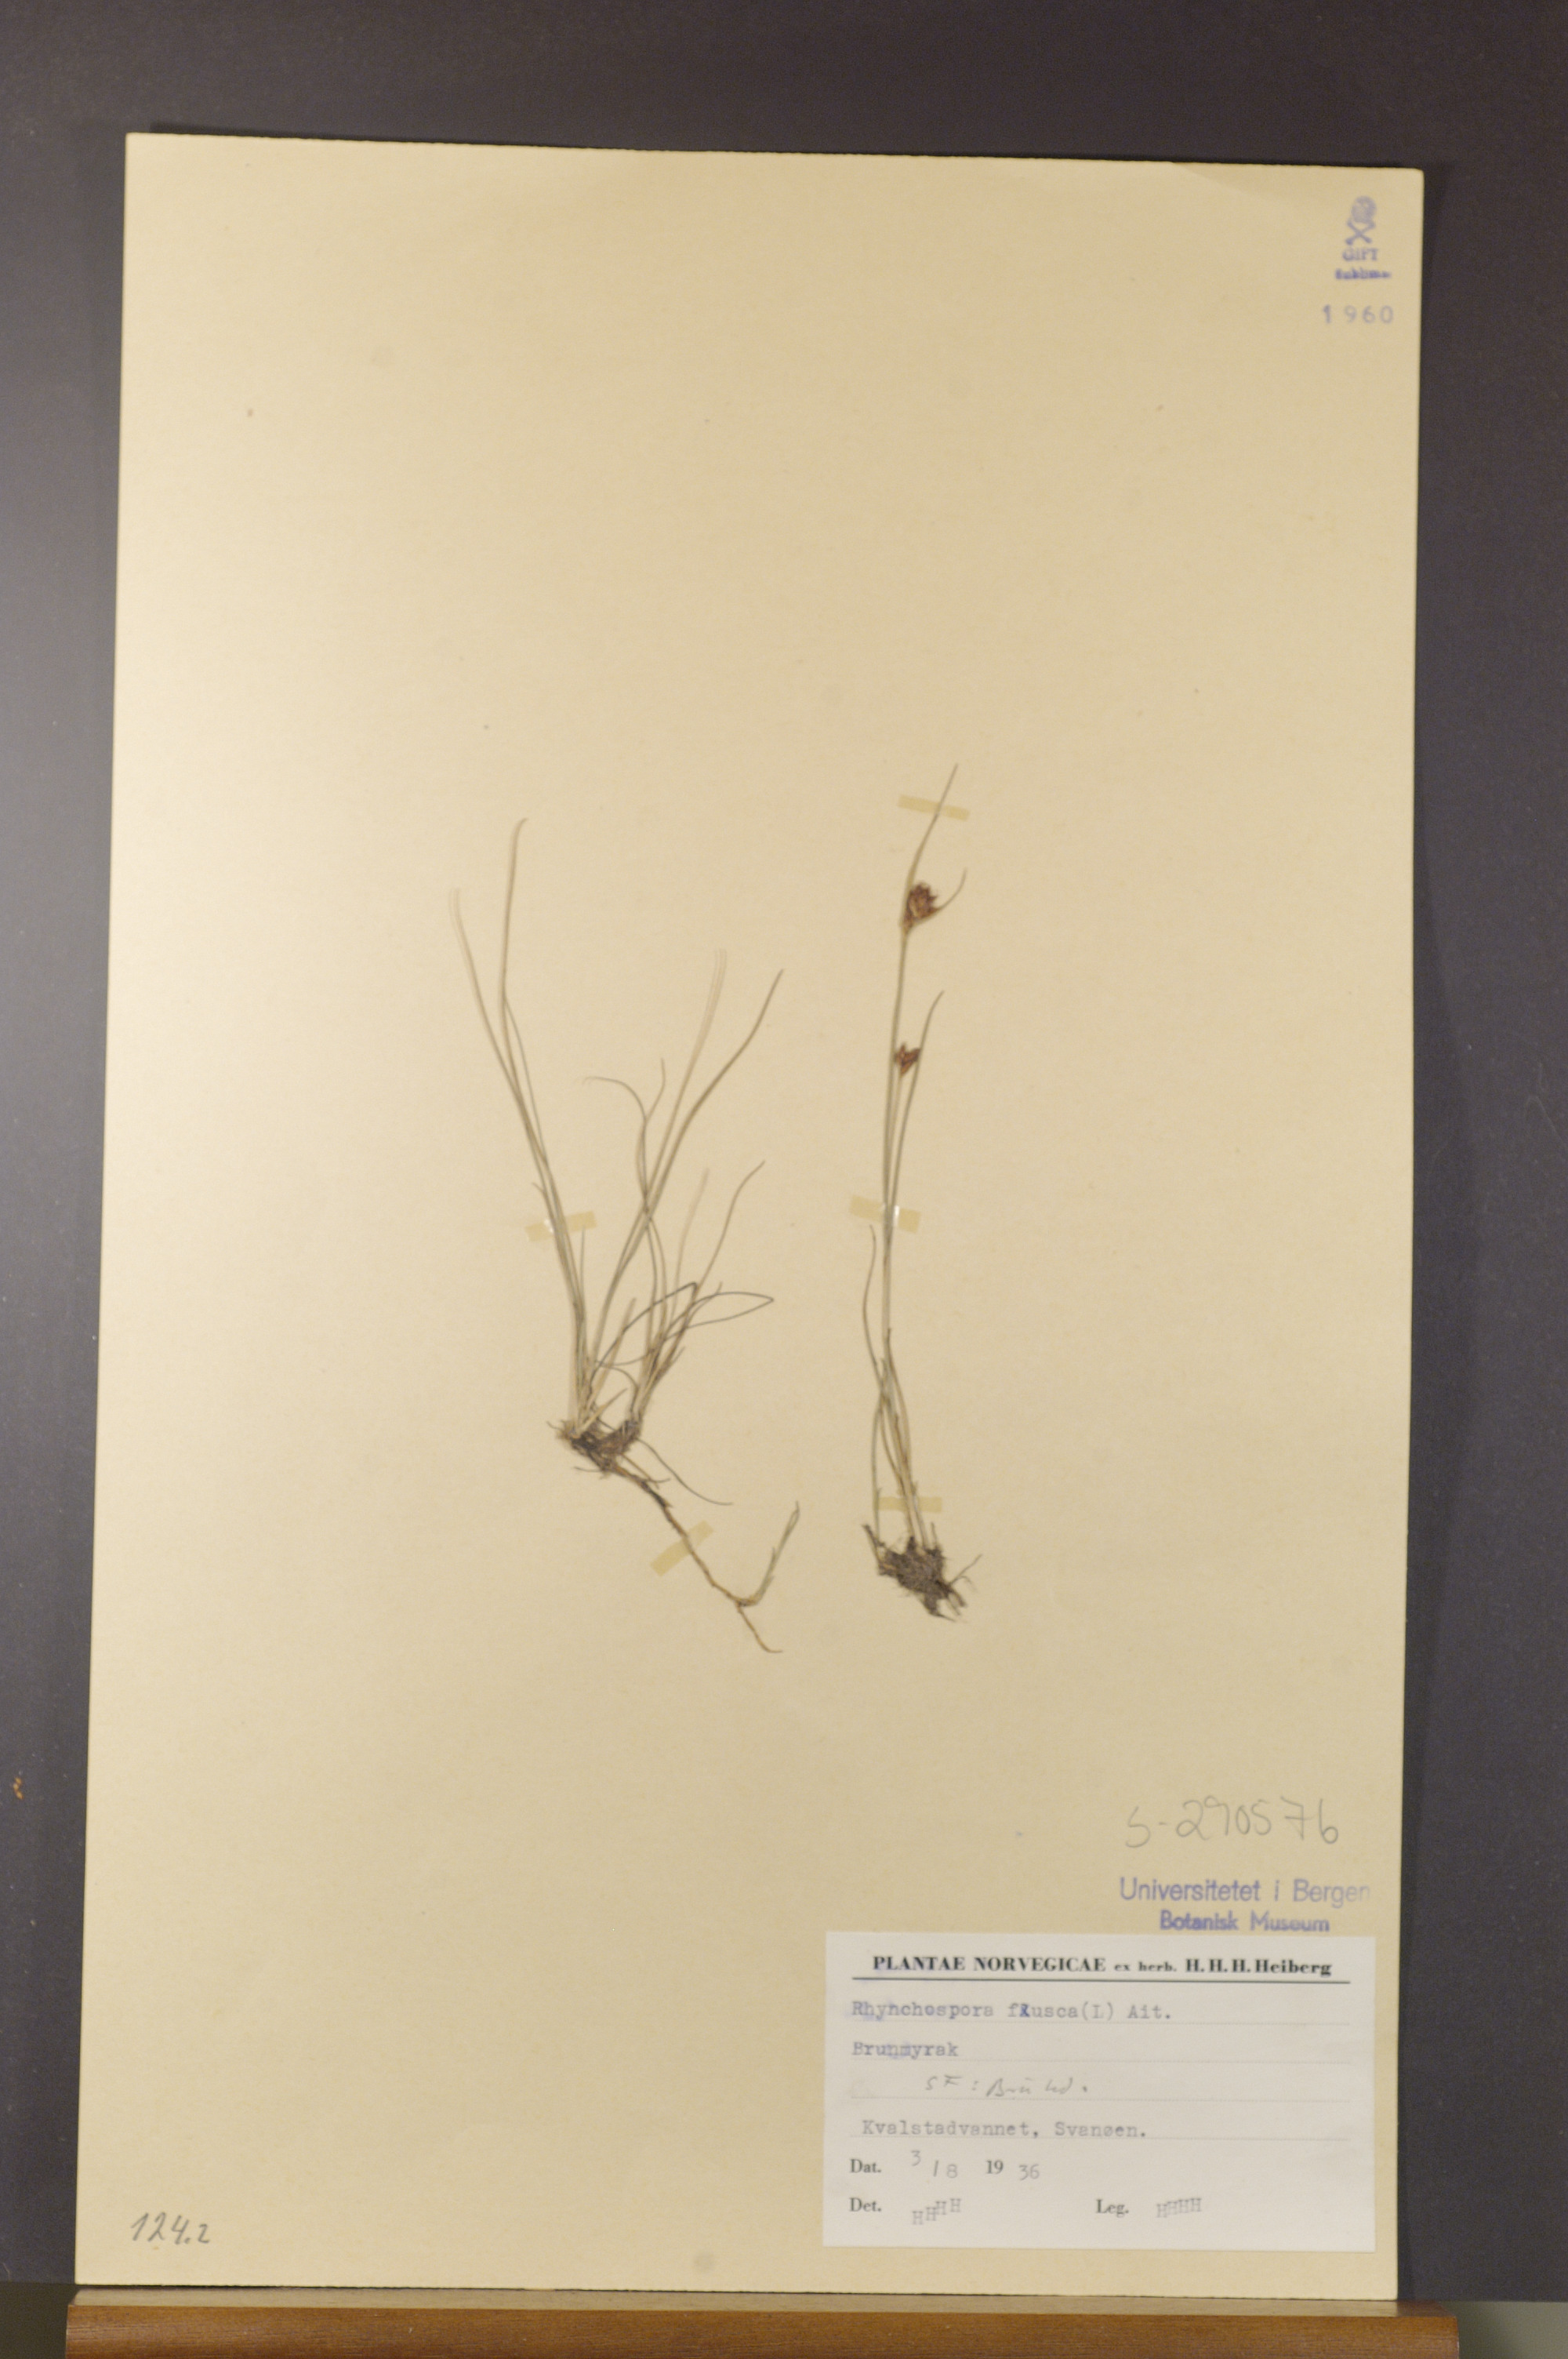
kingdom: Plantae
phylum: Tracheophyta
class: Liliopsida
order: Poales
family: Cyperaceae
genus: Rhynchospora
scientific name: Rhynchospora fusca
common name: Brown beak-sedge
